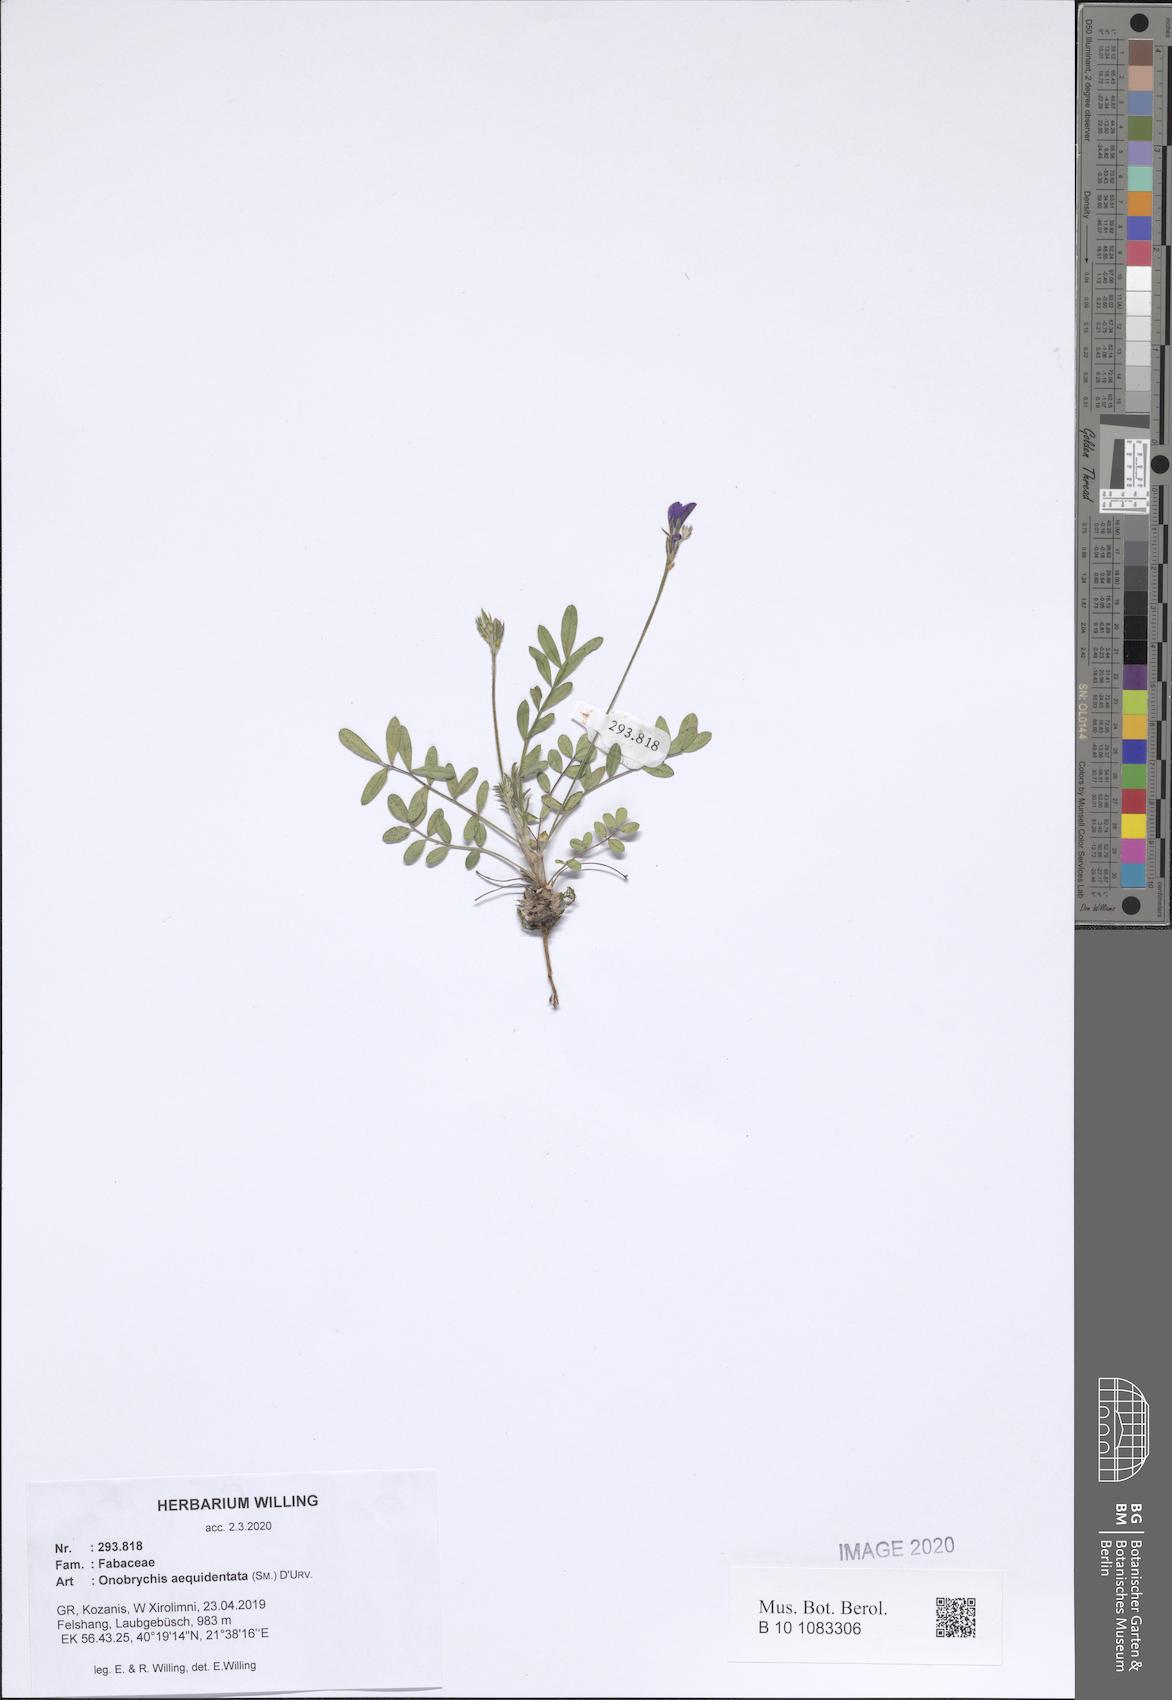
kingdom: Plantae
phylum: Tracheophyta
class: Magnoliopsida
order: Fabales
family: Fabaceae
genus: Onobrychis
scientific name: Onobrychis aequidentata
